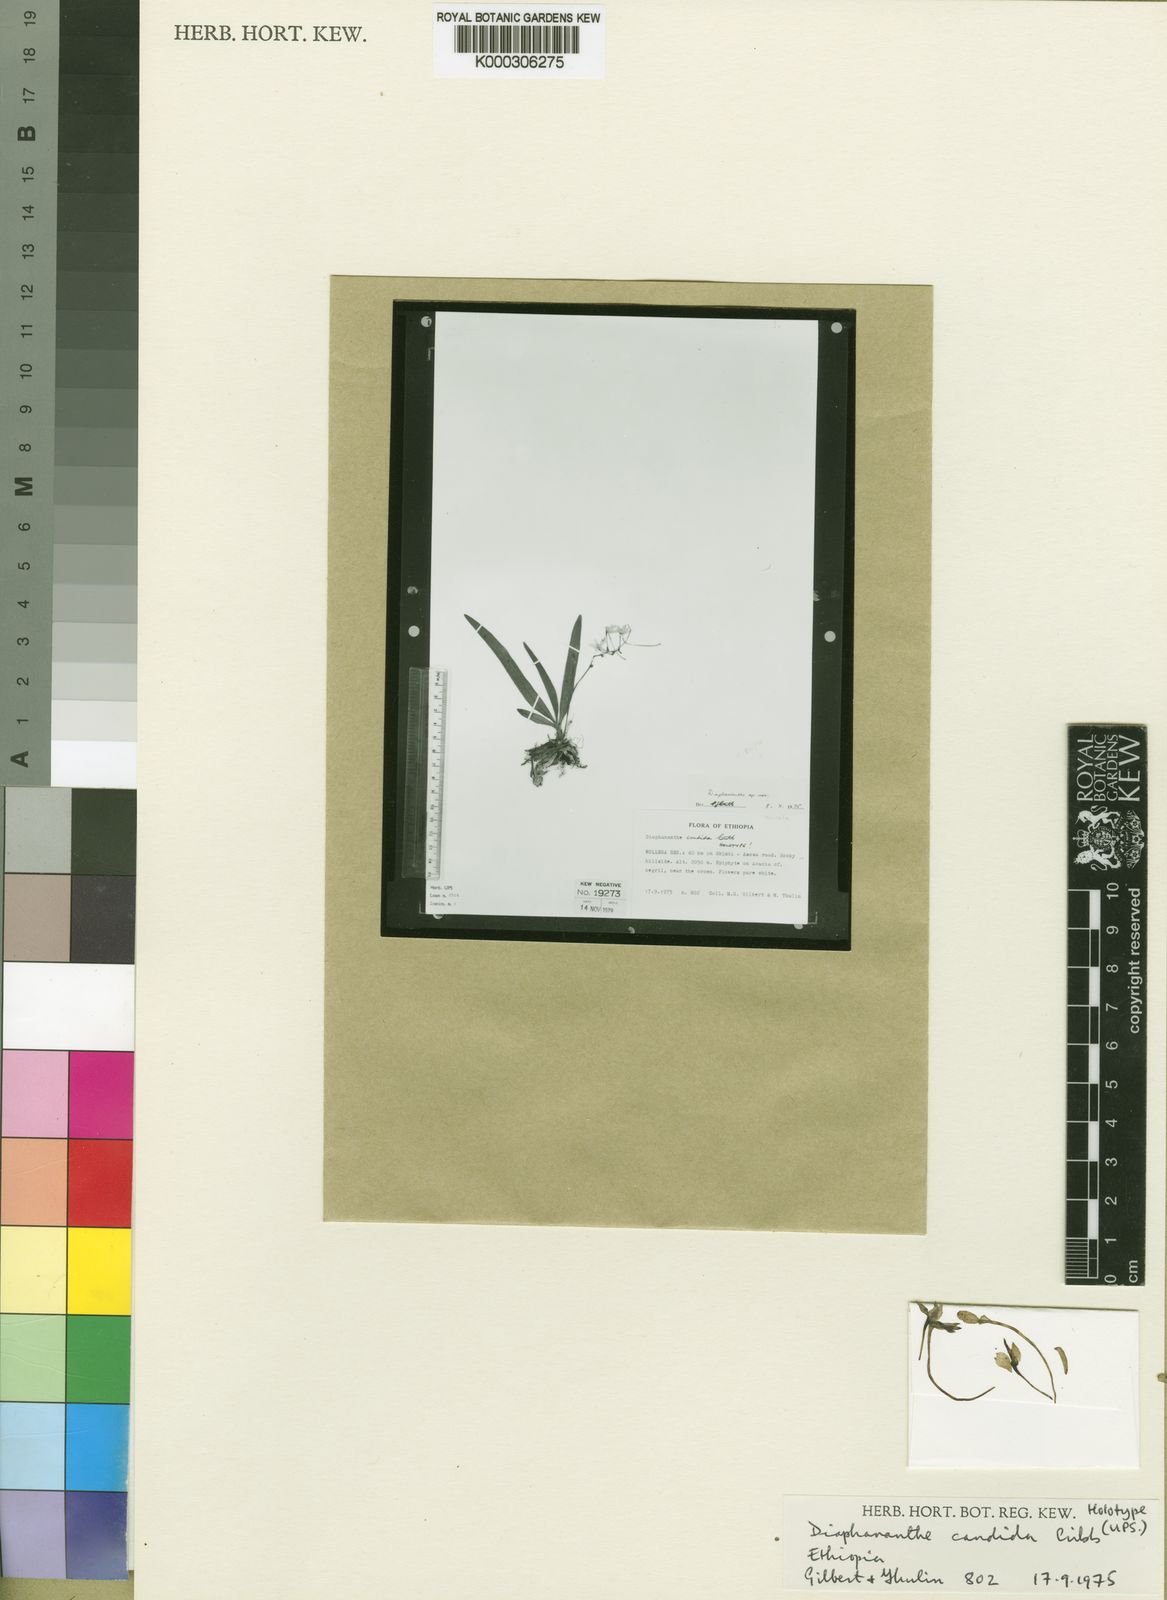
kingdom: Plantae
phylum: Tracheophyta
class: Liliopsida
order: Asparagales
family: Orchidaceae
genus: Rhipidoglossum
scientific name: Rhipidoglossum candidum
